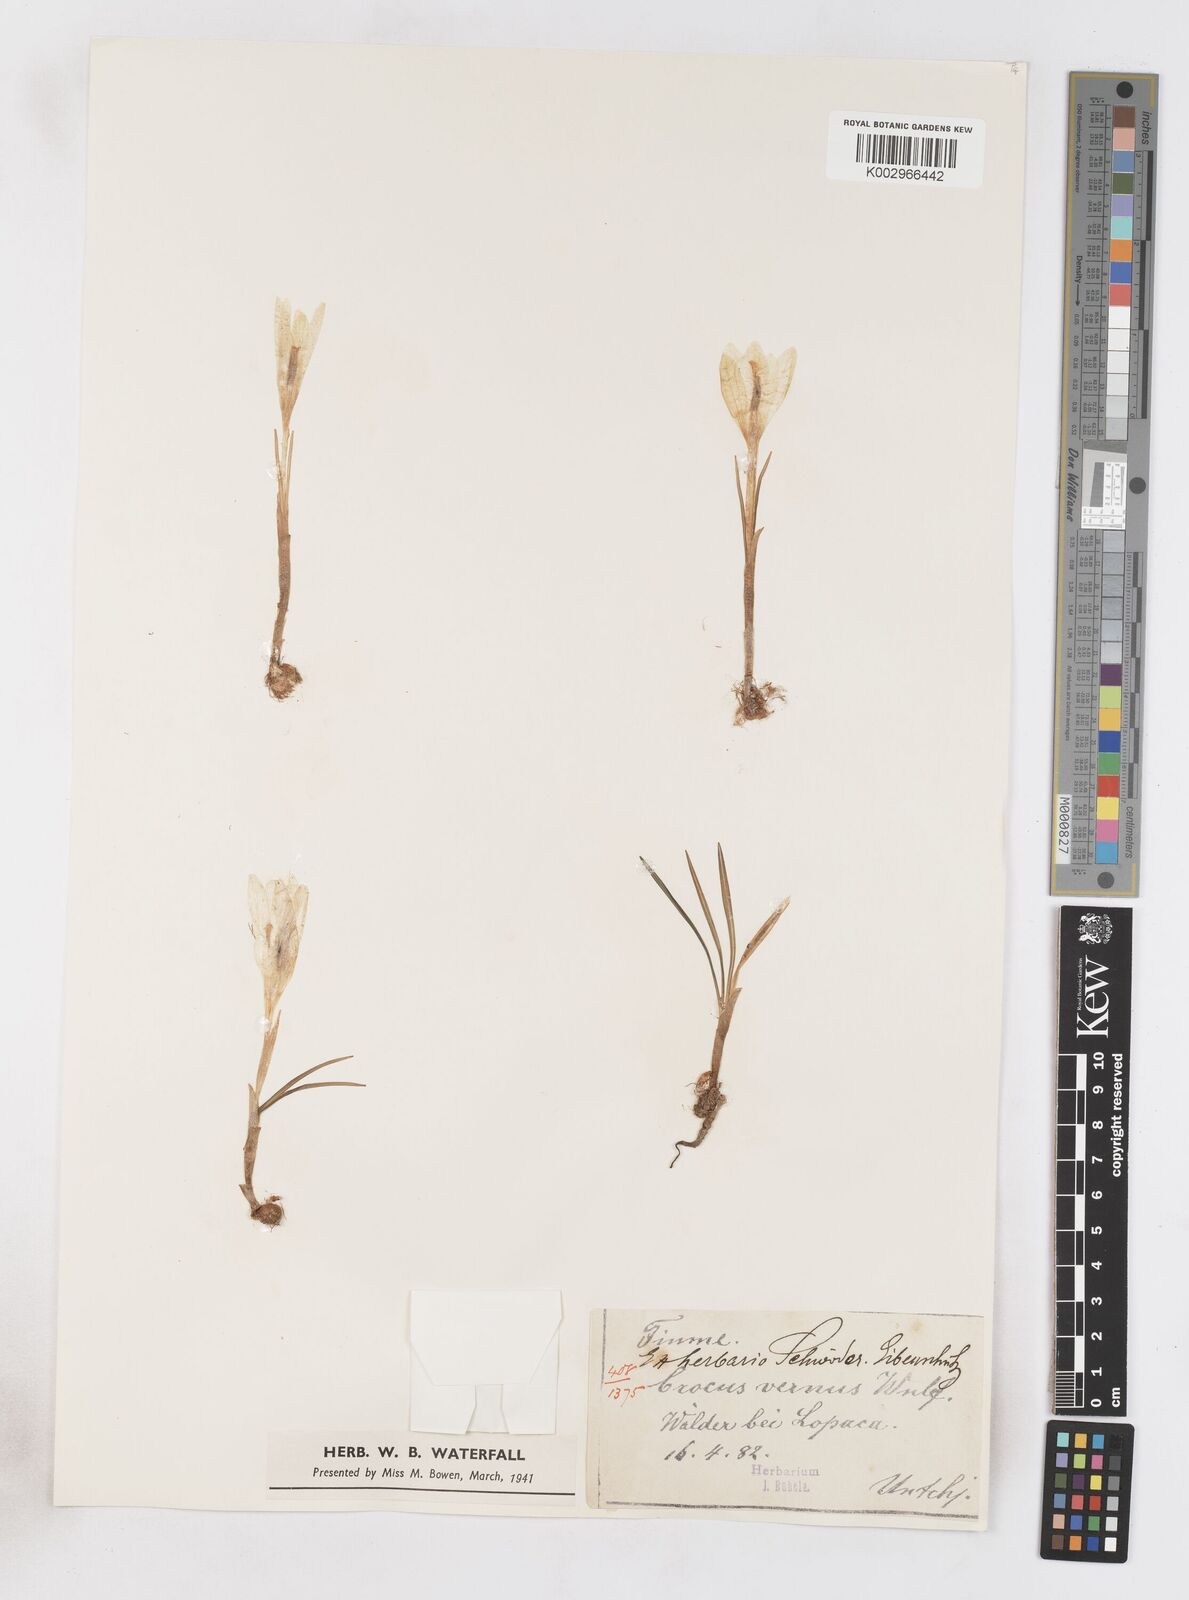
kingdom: Plantae
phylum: Tracheophyta
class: Liliopsida
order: Asparagales
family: Iridaceae
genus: Crocus
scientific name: Crocus vernus
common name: Spring crocus
